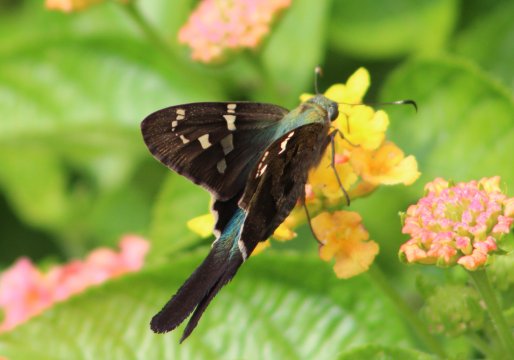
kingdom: Animalia
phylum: Arthropoda
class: Insecta
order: Lepidoptera
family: Hesperiidae
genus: Urbanus
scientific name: Urbanus proteus
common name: Long-tailed Skipper
